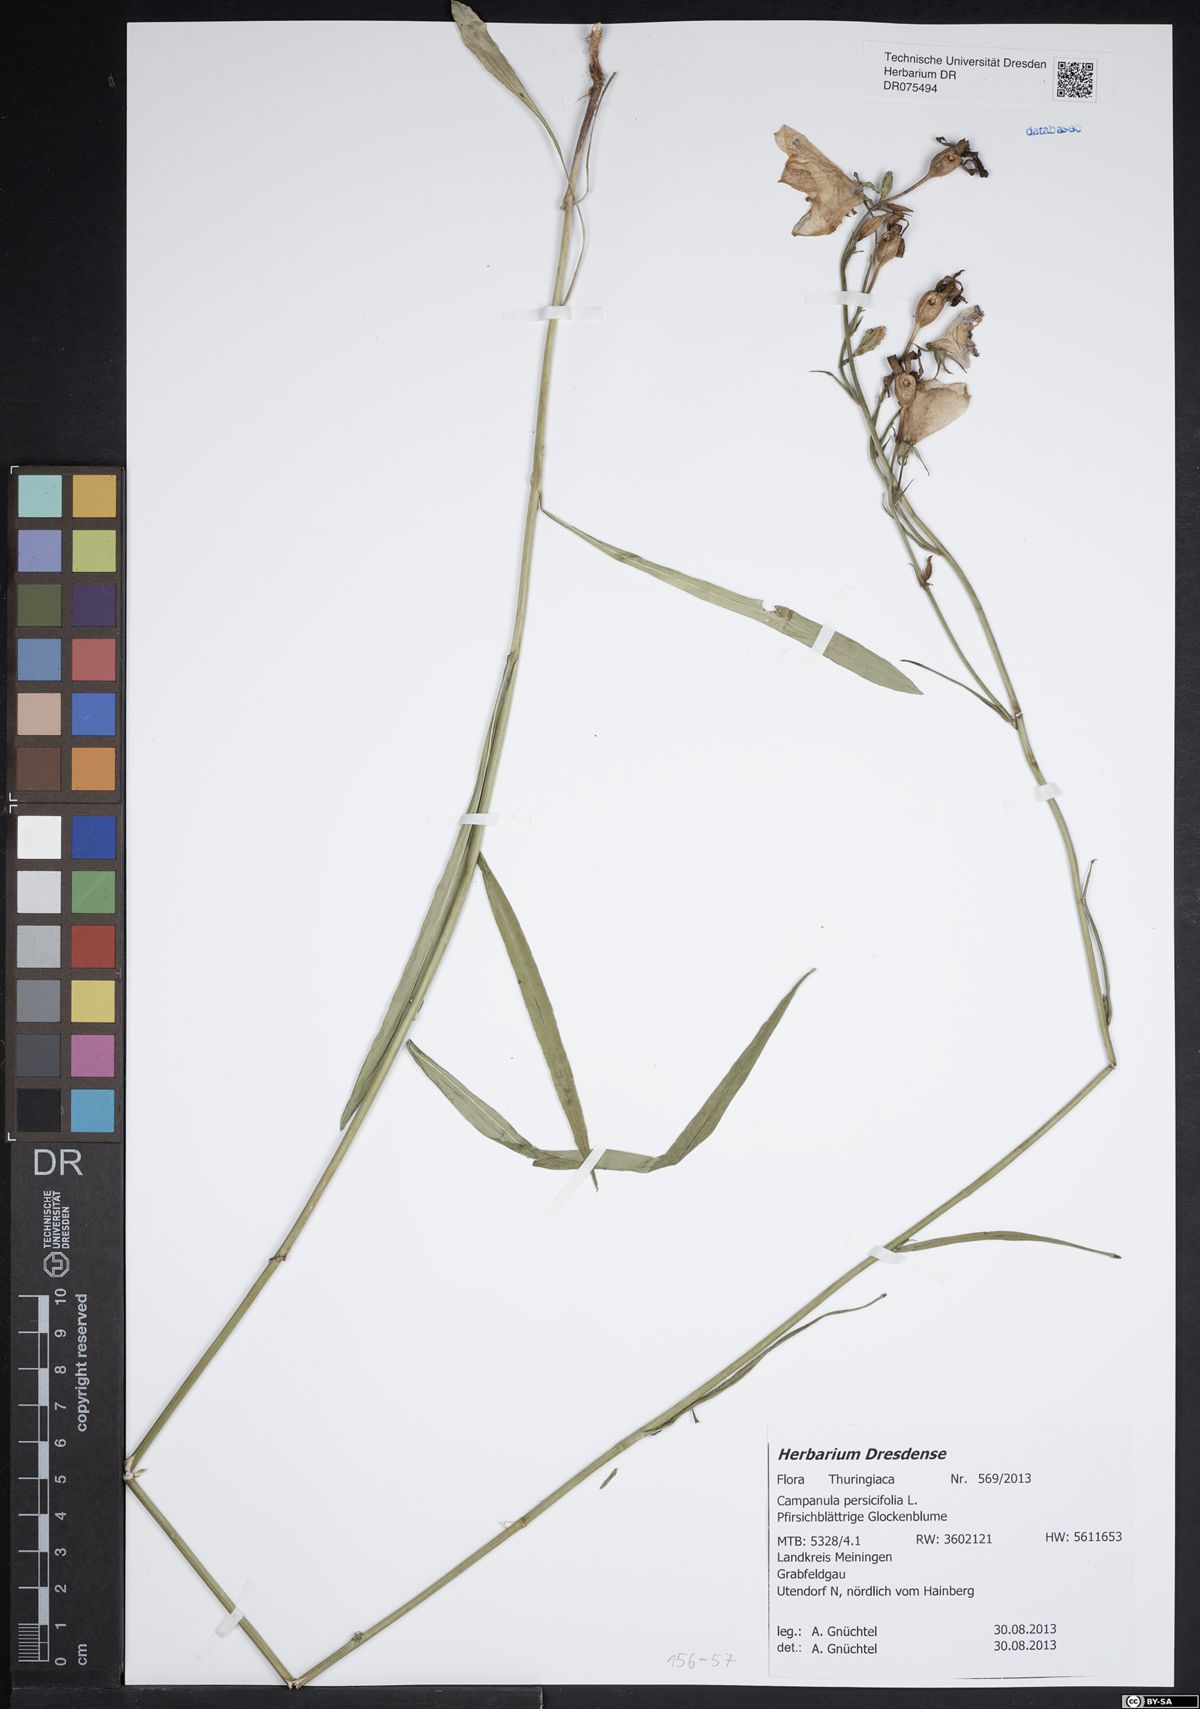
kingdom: Plantae
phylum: Tracheophyta
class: Magnoliopsida
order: Asterales
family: Campanulaceae
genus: Campanula
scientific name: Campanula persicifolia
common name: Peach-leaved bellflower
